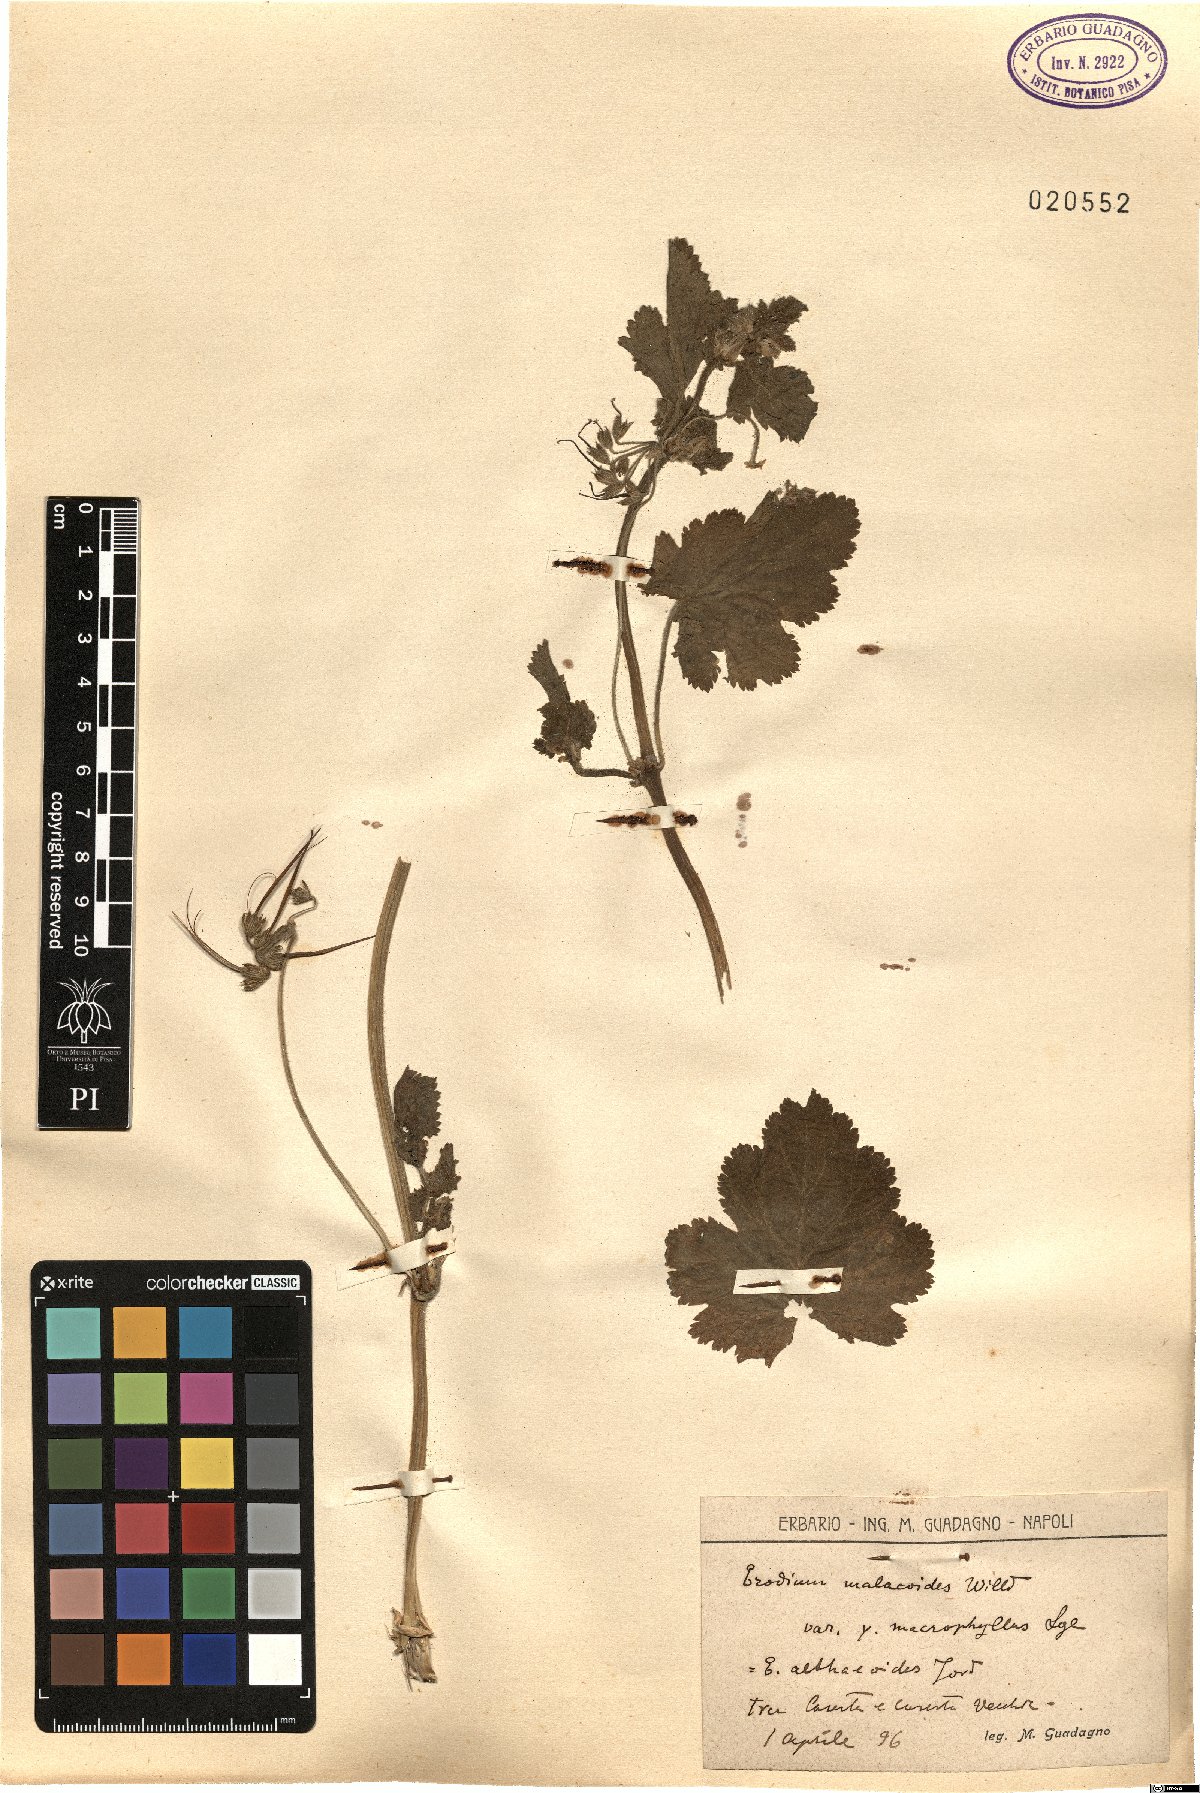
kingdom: Plantae
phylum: Tracheophyta
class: Magnoliopsida
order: Geraniales
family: Geraniaceae
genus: Erodium
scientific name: Erodium malacoides
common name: Soft stork's-bill
